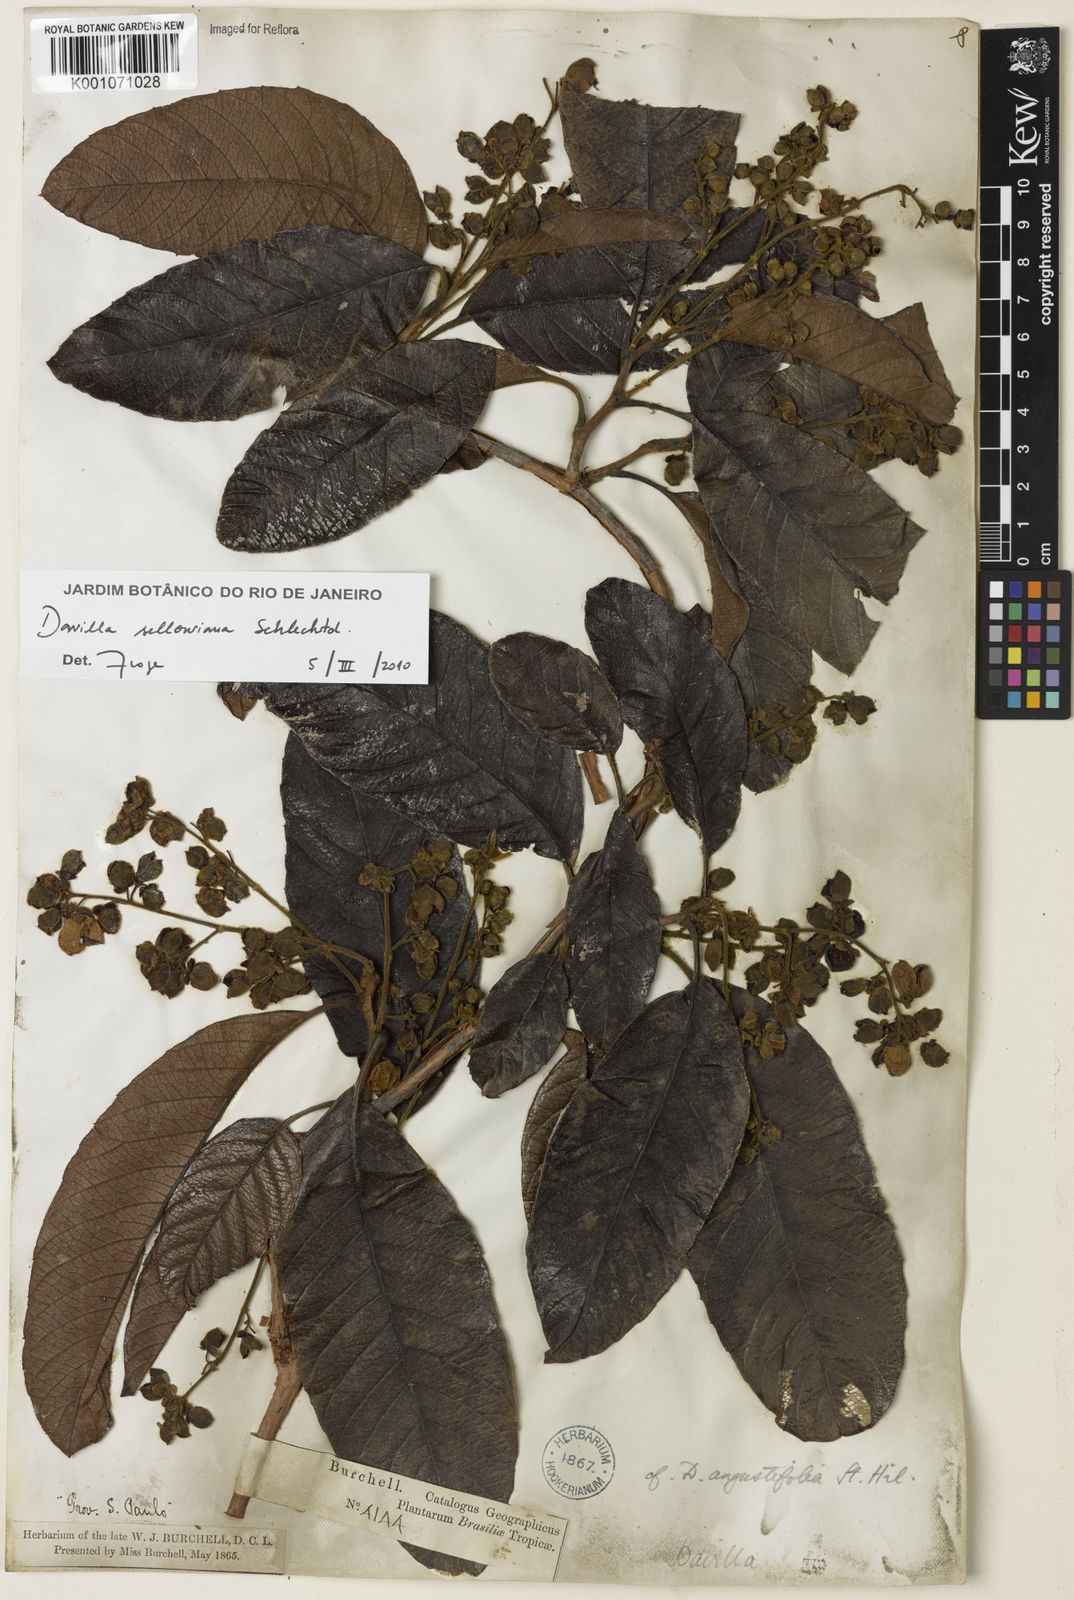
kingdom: Plantae
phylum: Tracheophyta
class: Magnoliopsida
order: Dilleniales
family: Dilleniaceae
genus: Davilla
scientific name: Davilla sellowiana
